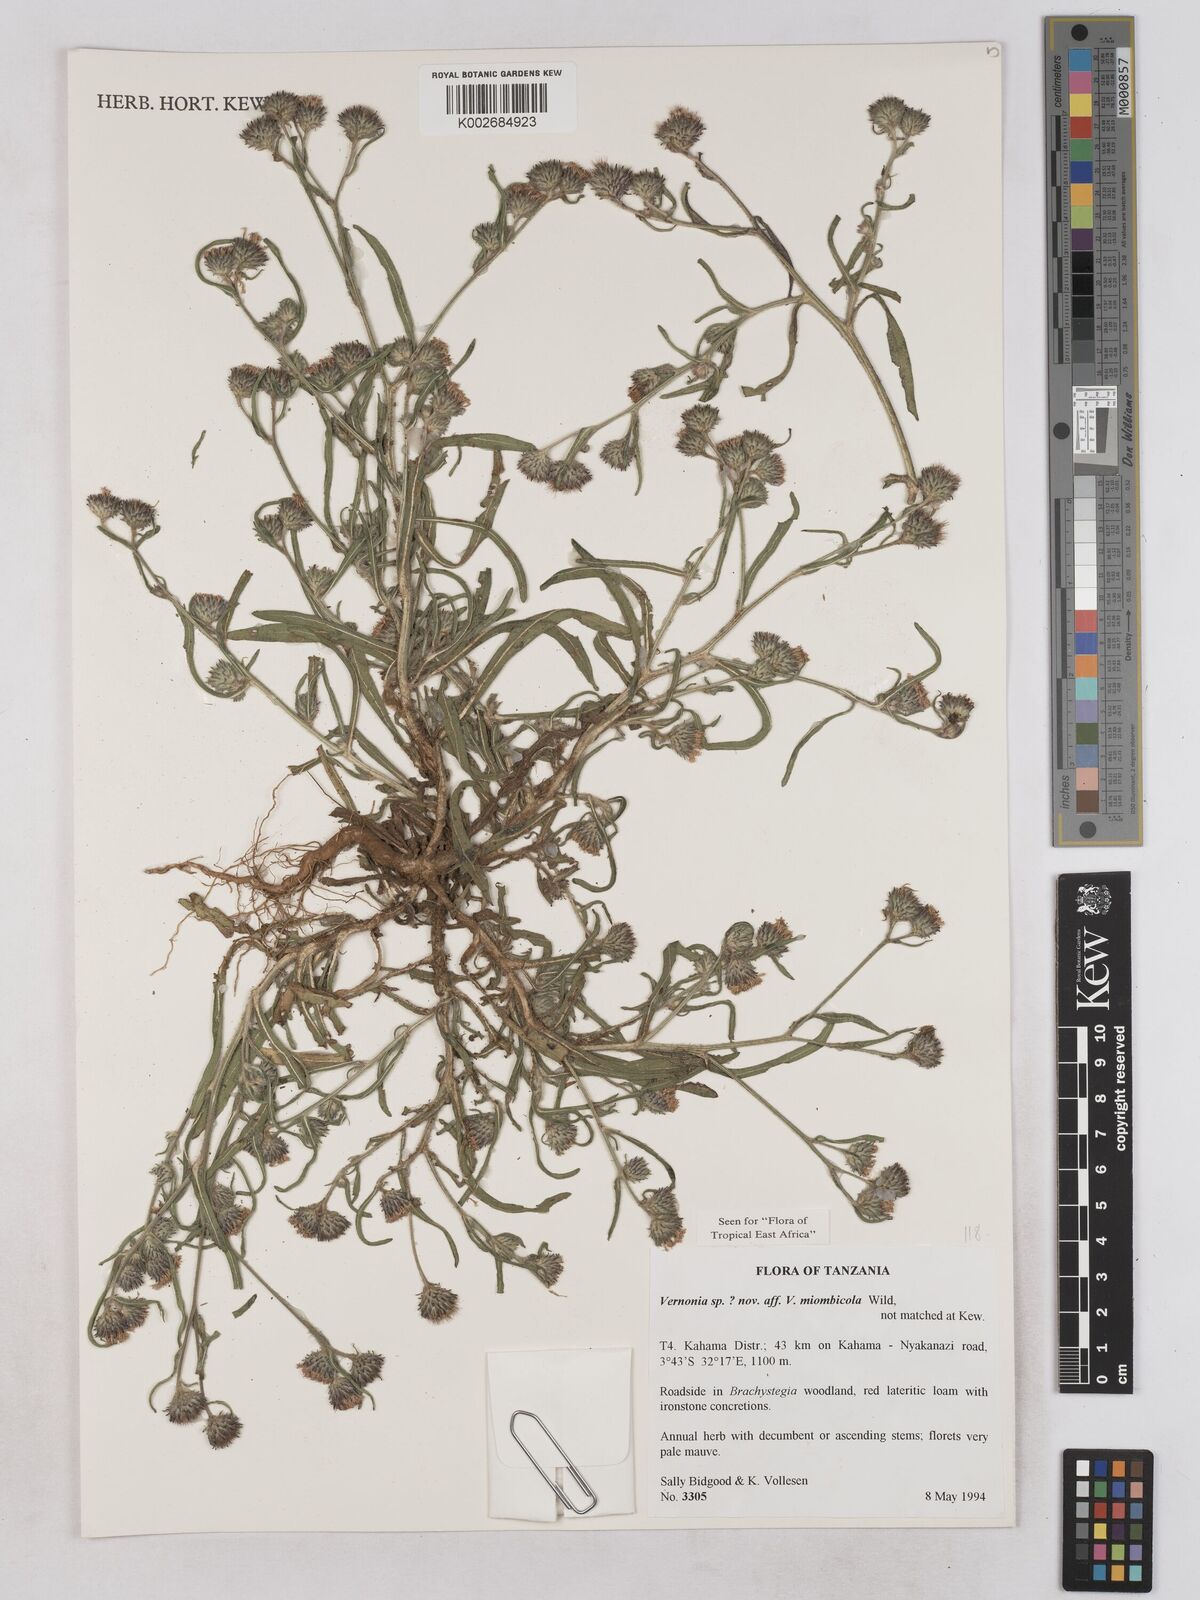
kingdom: Plantae
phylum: Tracheophyta
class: Magnoliopsida
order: Asterales
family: Asteraceae
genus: Vernonia
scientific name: Vernonia miombicola
